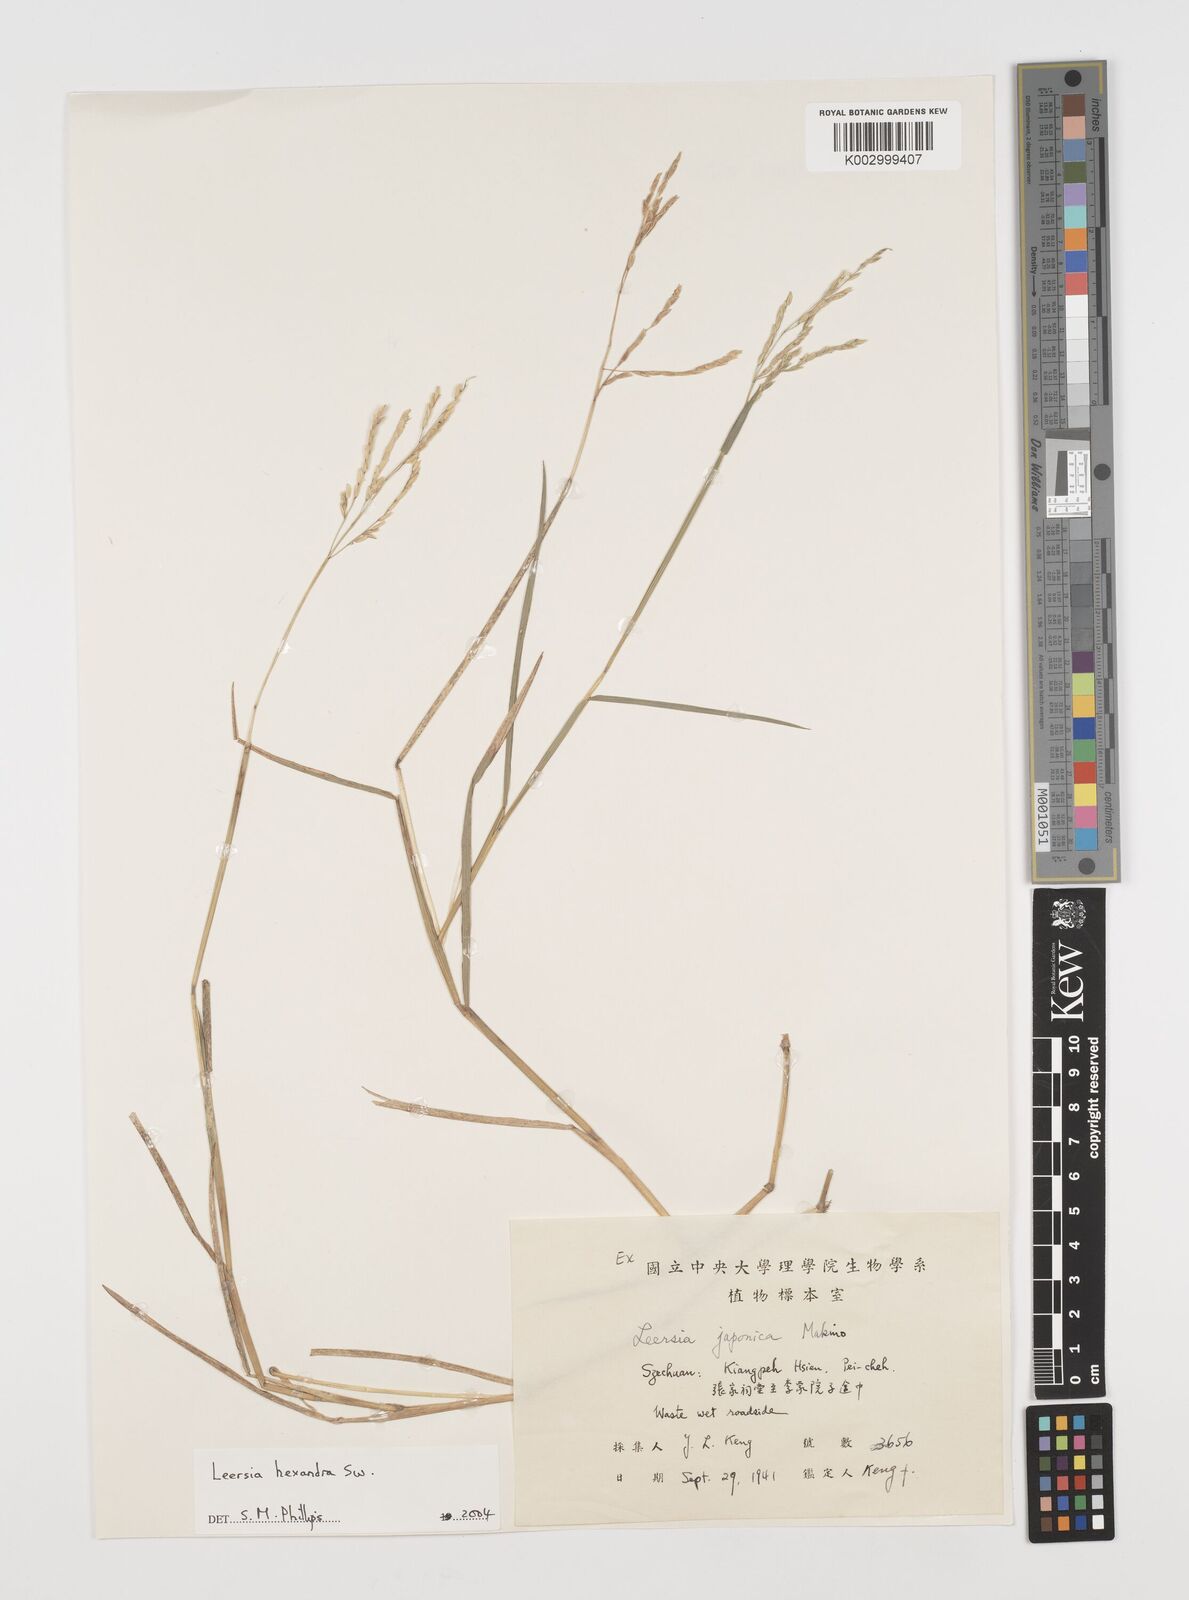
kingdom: Plantae
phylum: Tracheophyta
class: Liliopsida
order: Poales
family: Poaceae
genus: Leersia
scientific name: Leersia hexandra
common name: Southern cut grass
